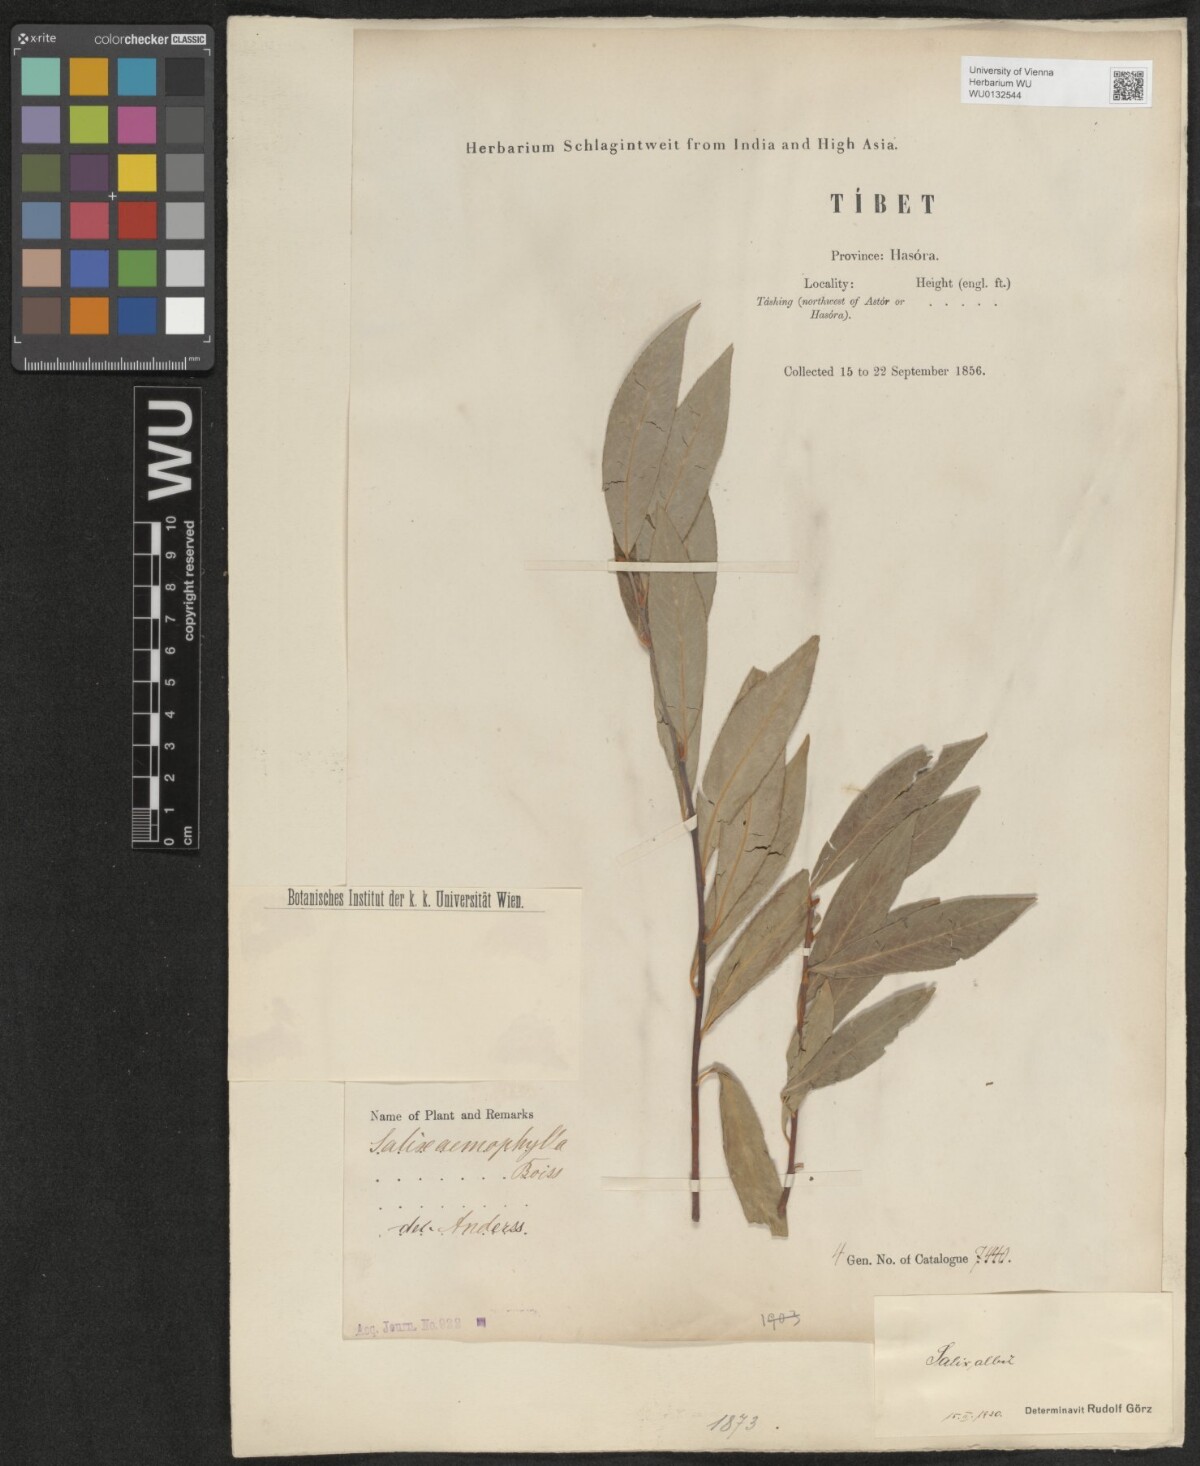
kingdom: Plantae
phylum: Tracheophyta
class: Magnoliopsida
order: Malpighiales
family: Salicaceae
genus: Salix
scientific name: Salix alba
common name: White willow
